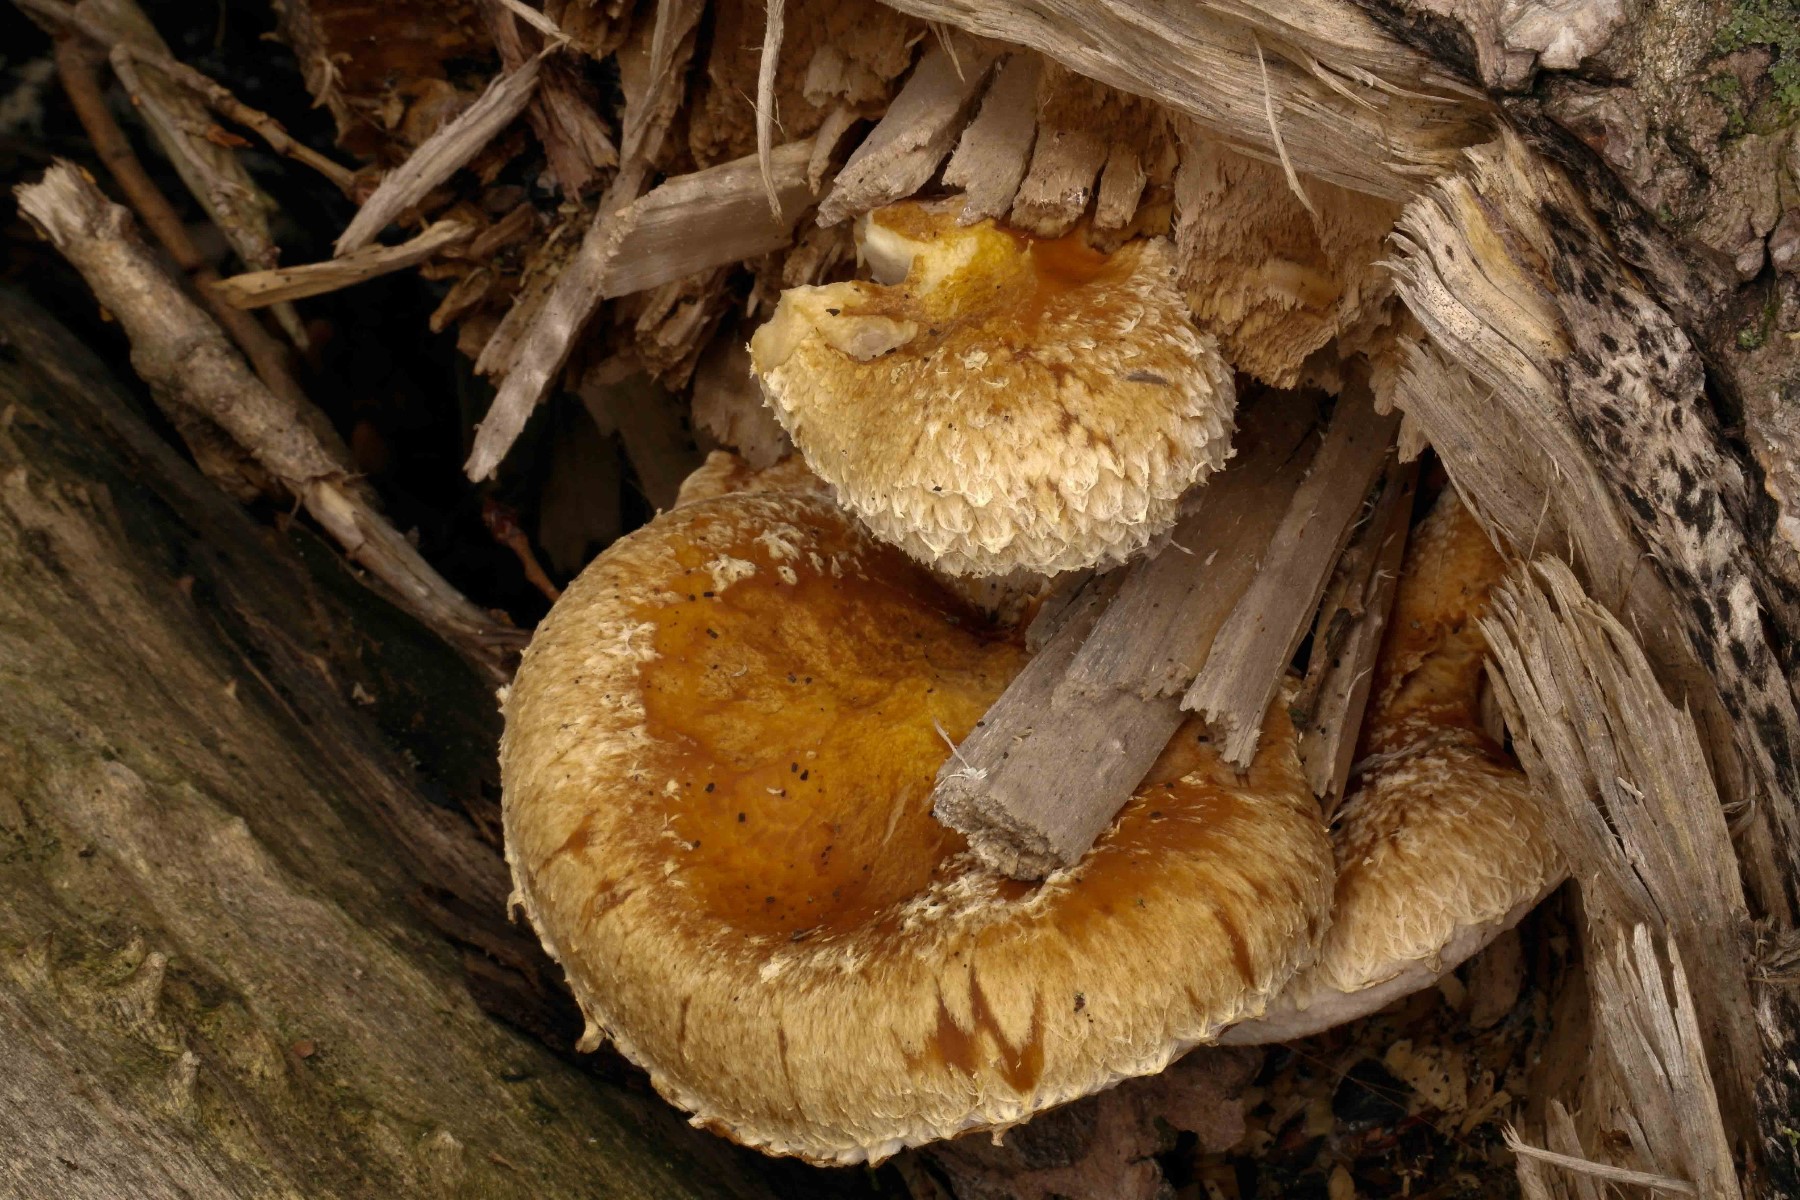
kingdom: Fungi
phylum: Basidiomycota
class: Agaricomycetes
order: Agaricales
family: Strophariaceae
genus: Pholiota
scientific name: Pholiota populnea
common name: poppel-kæmpeskælhat
